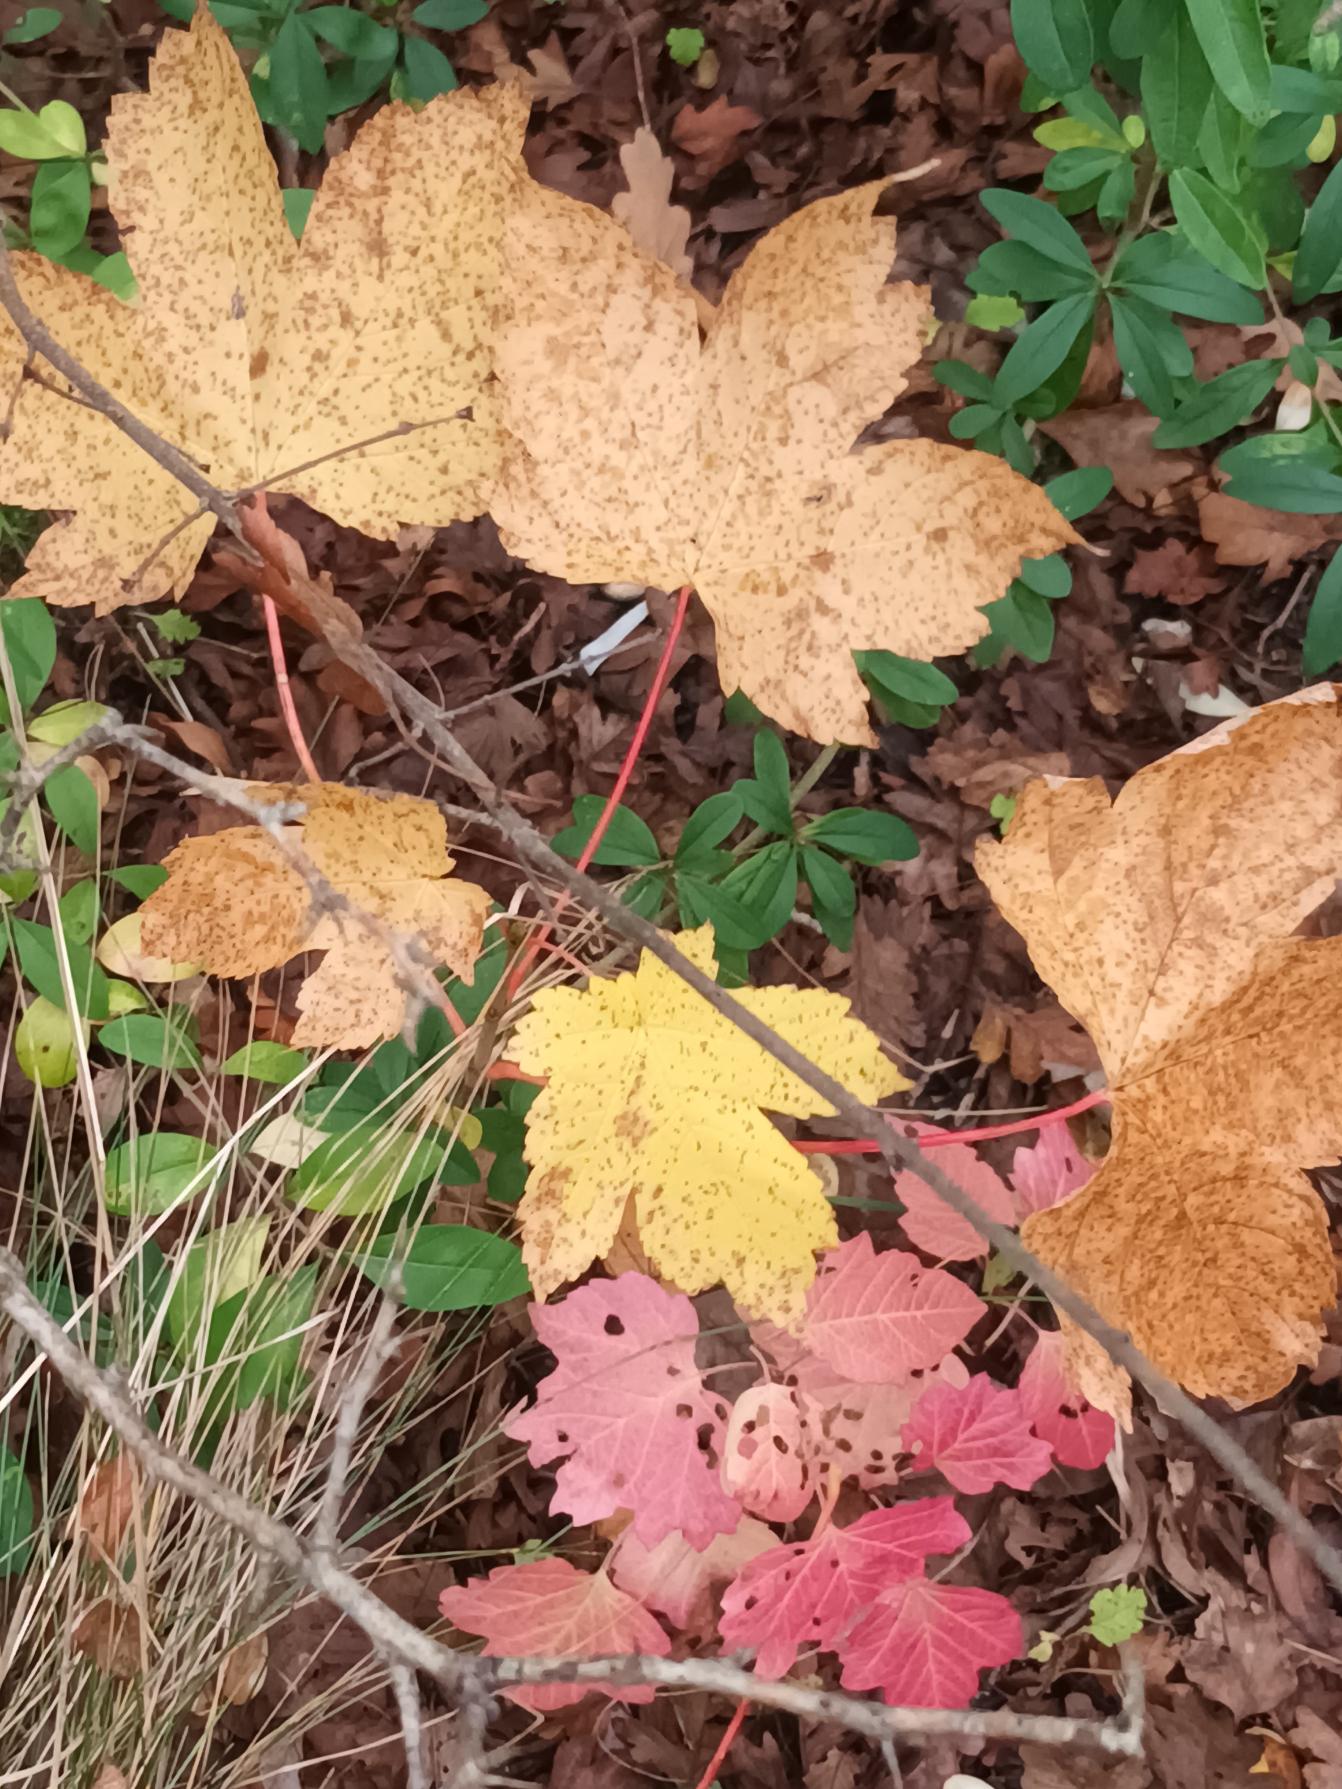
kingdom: Plantae
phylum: Tracheophyta
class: Magnoliopsida
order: Sapindales
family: Sapindaceae
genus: Acer
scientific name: Acer pseudoplatanus
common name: Ahorn
